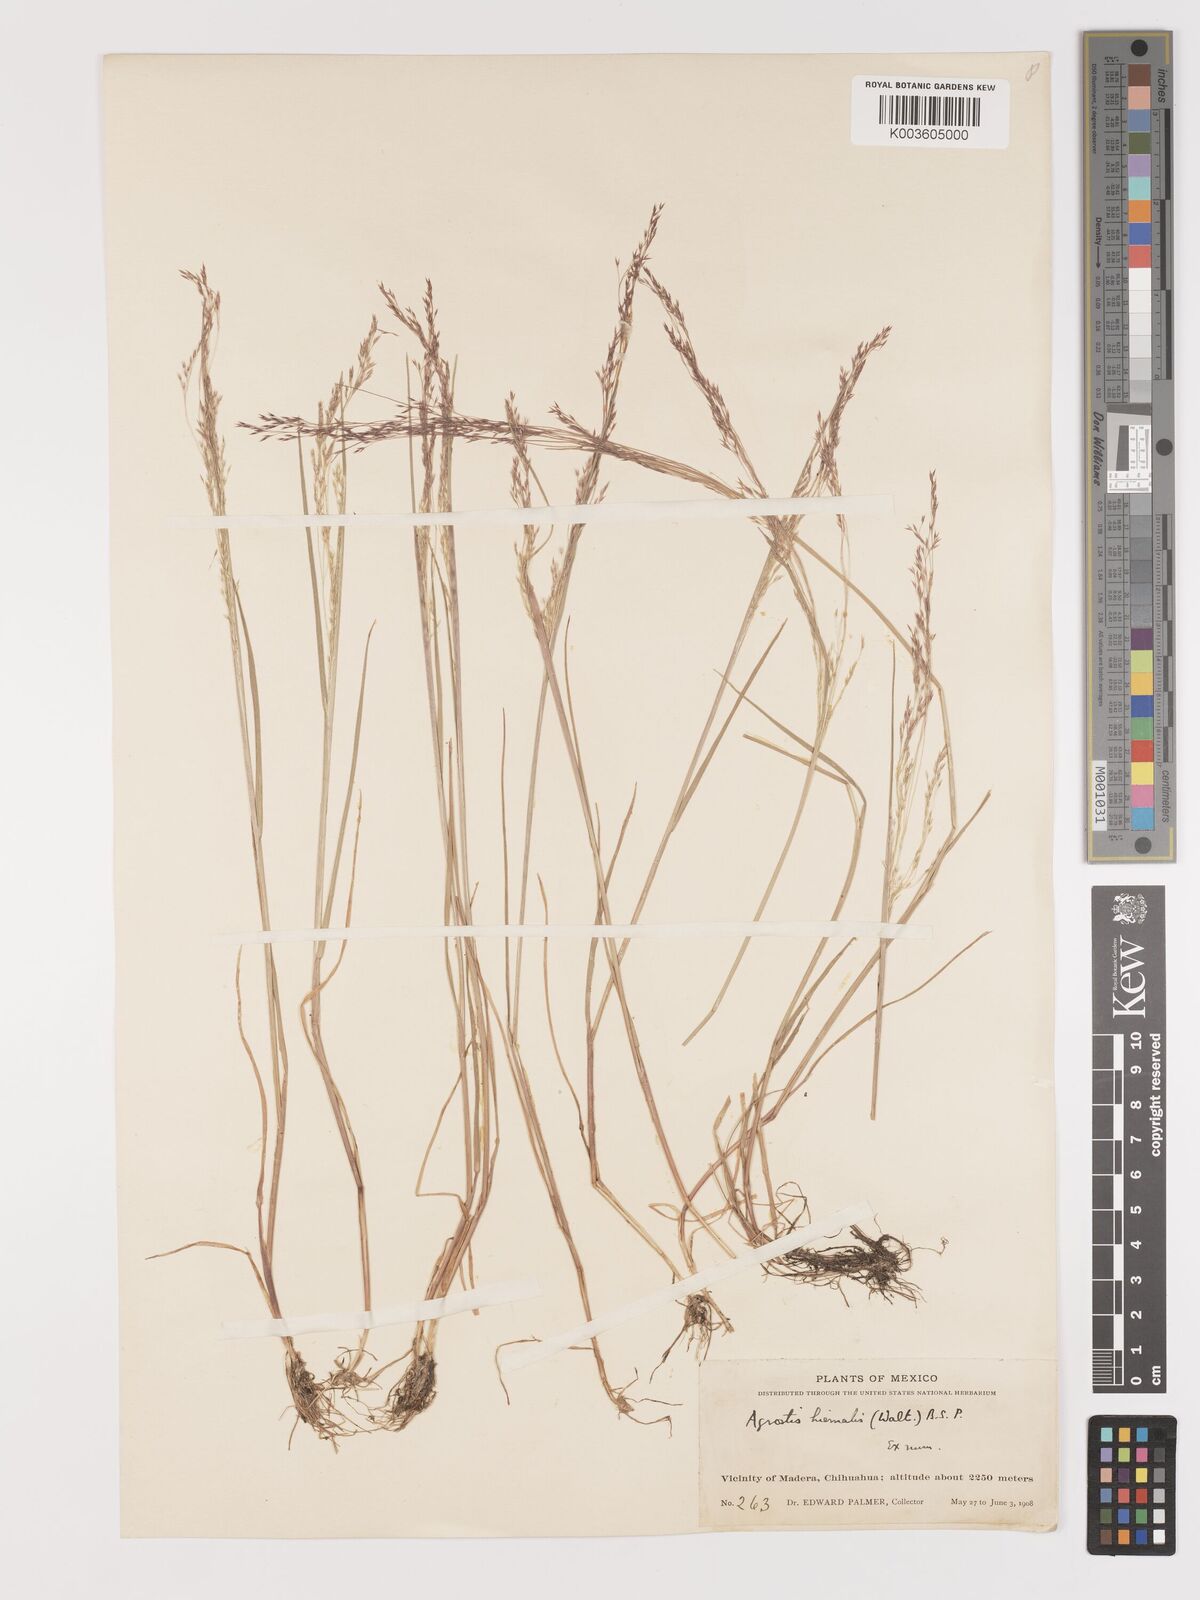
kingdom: Plantae
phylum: Tracheophyta
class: Liliopsida
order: Poales
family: Poaceae
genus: Agrostis
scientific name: Agrostis hyemalis
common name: Small bent
